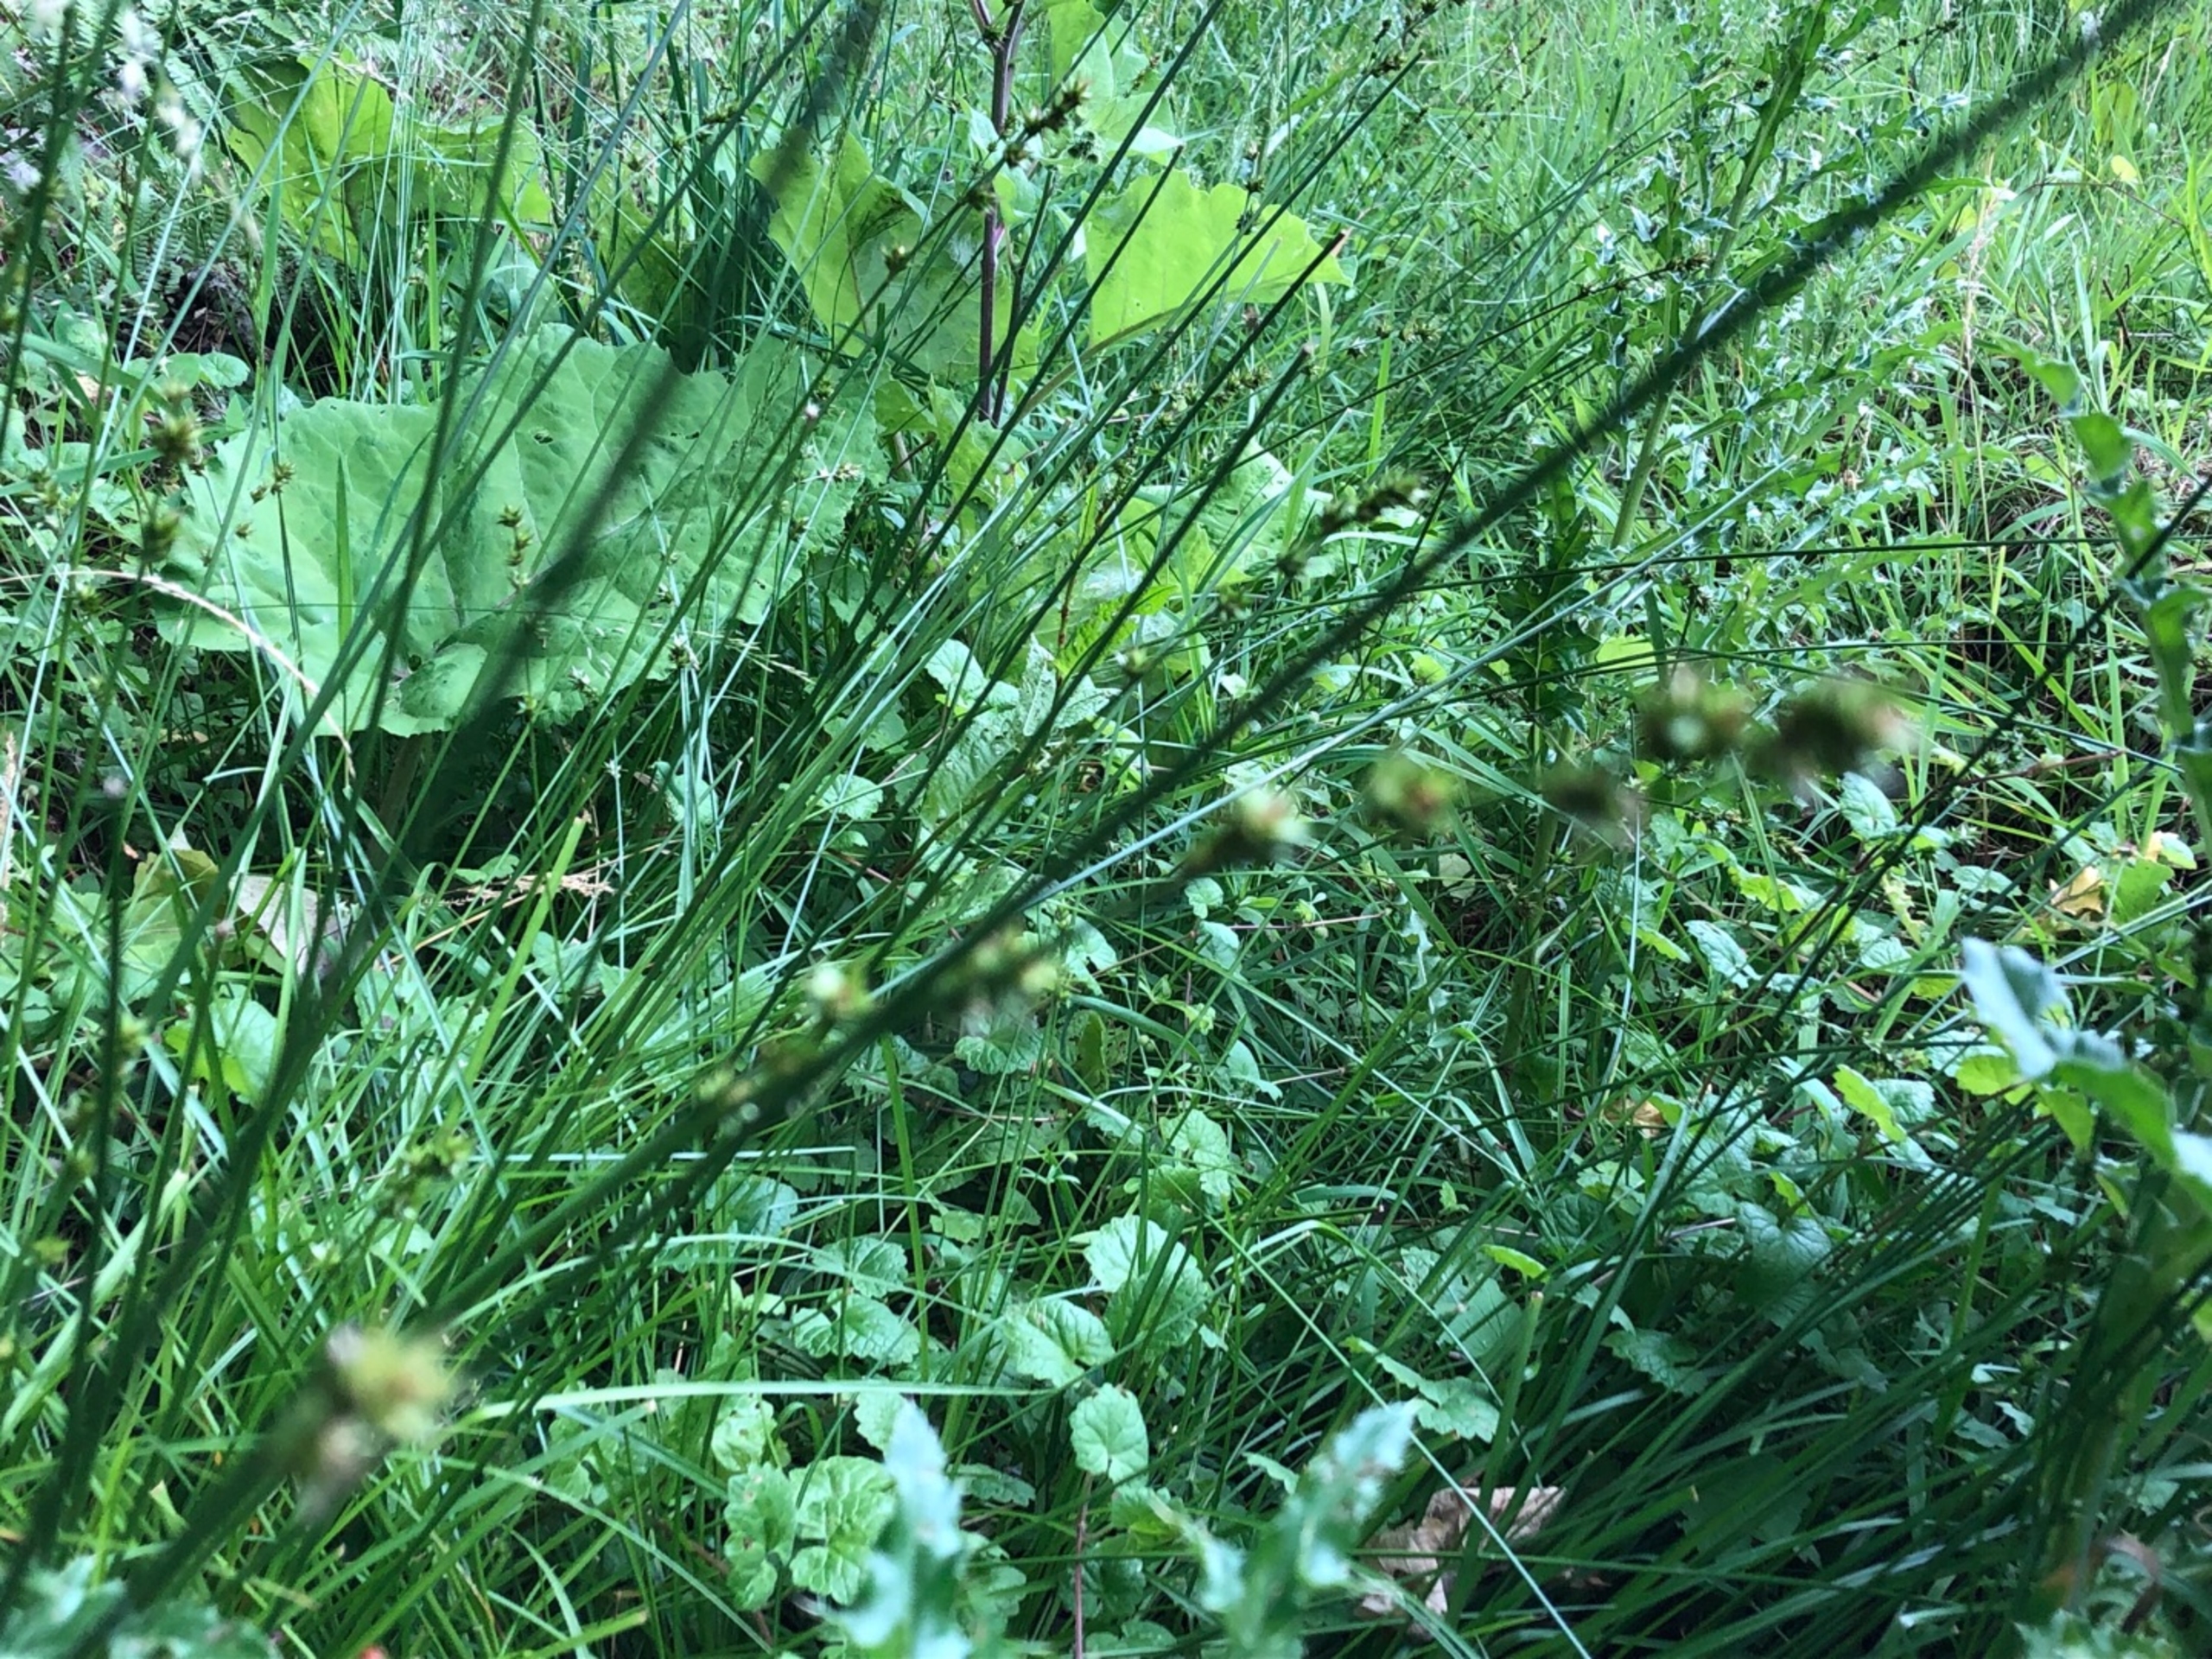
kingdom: Plantae
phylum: Tracheophyta
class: Liliopsida
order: Poales
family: Cyperaceae
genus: Carex
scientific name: Carex divulsa
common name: Mellembrudt star
